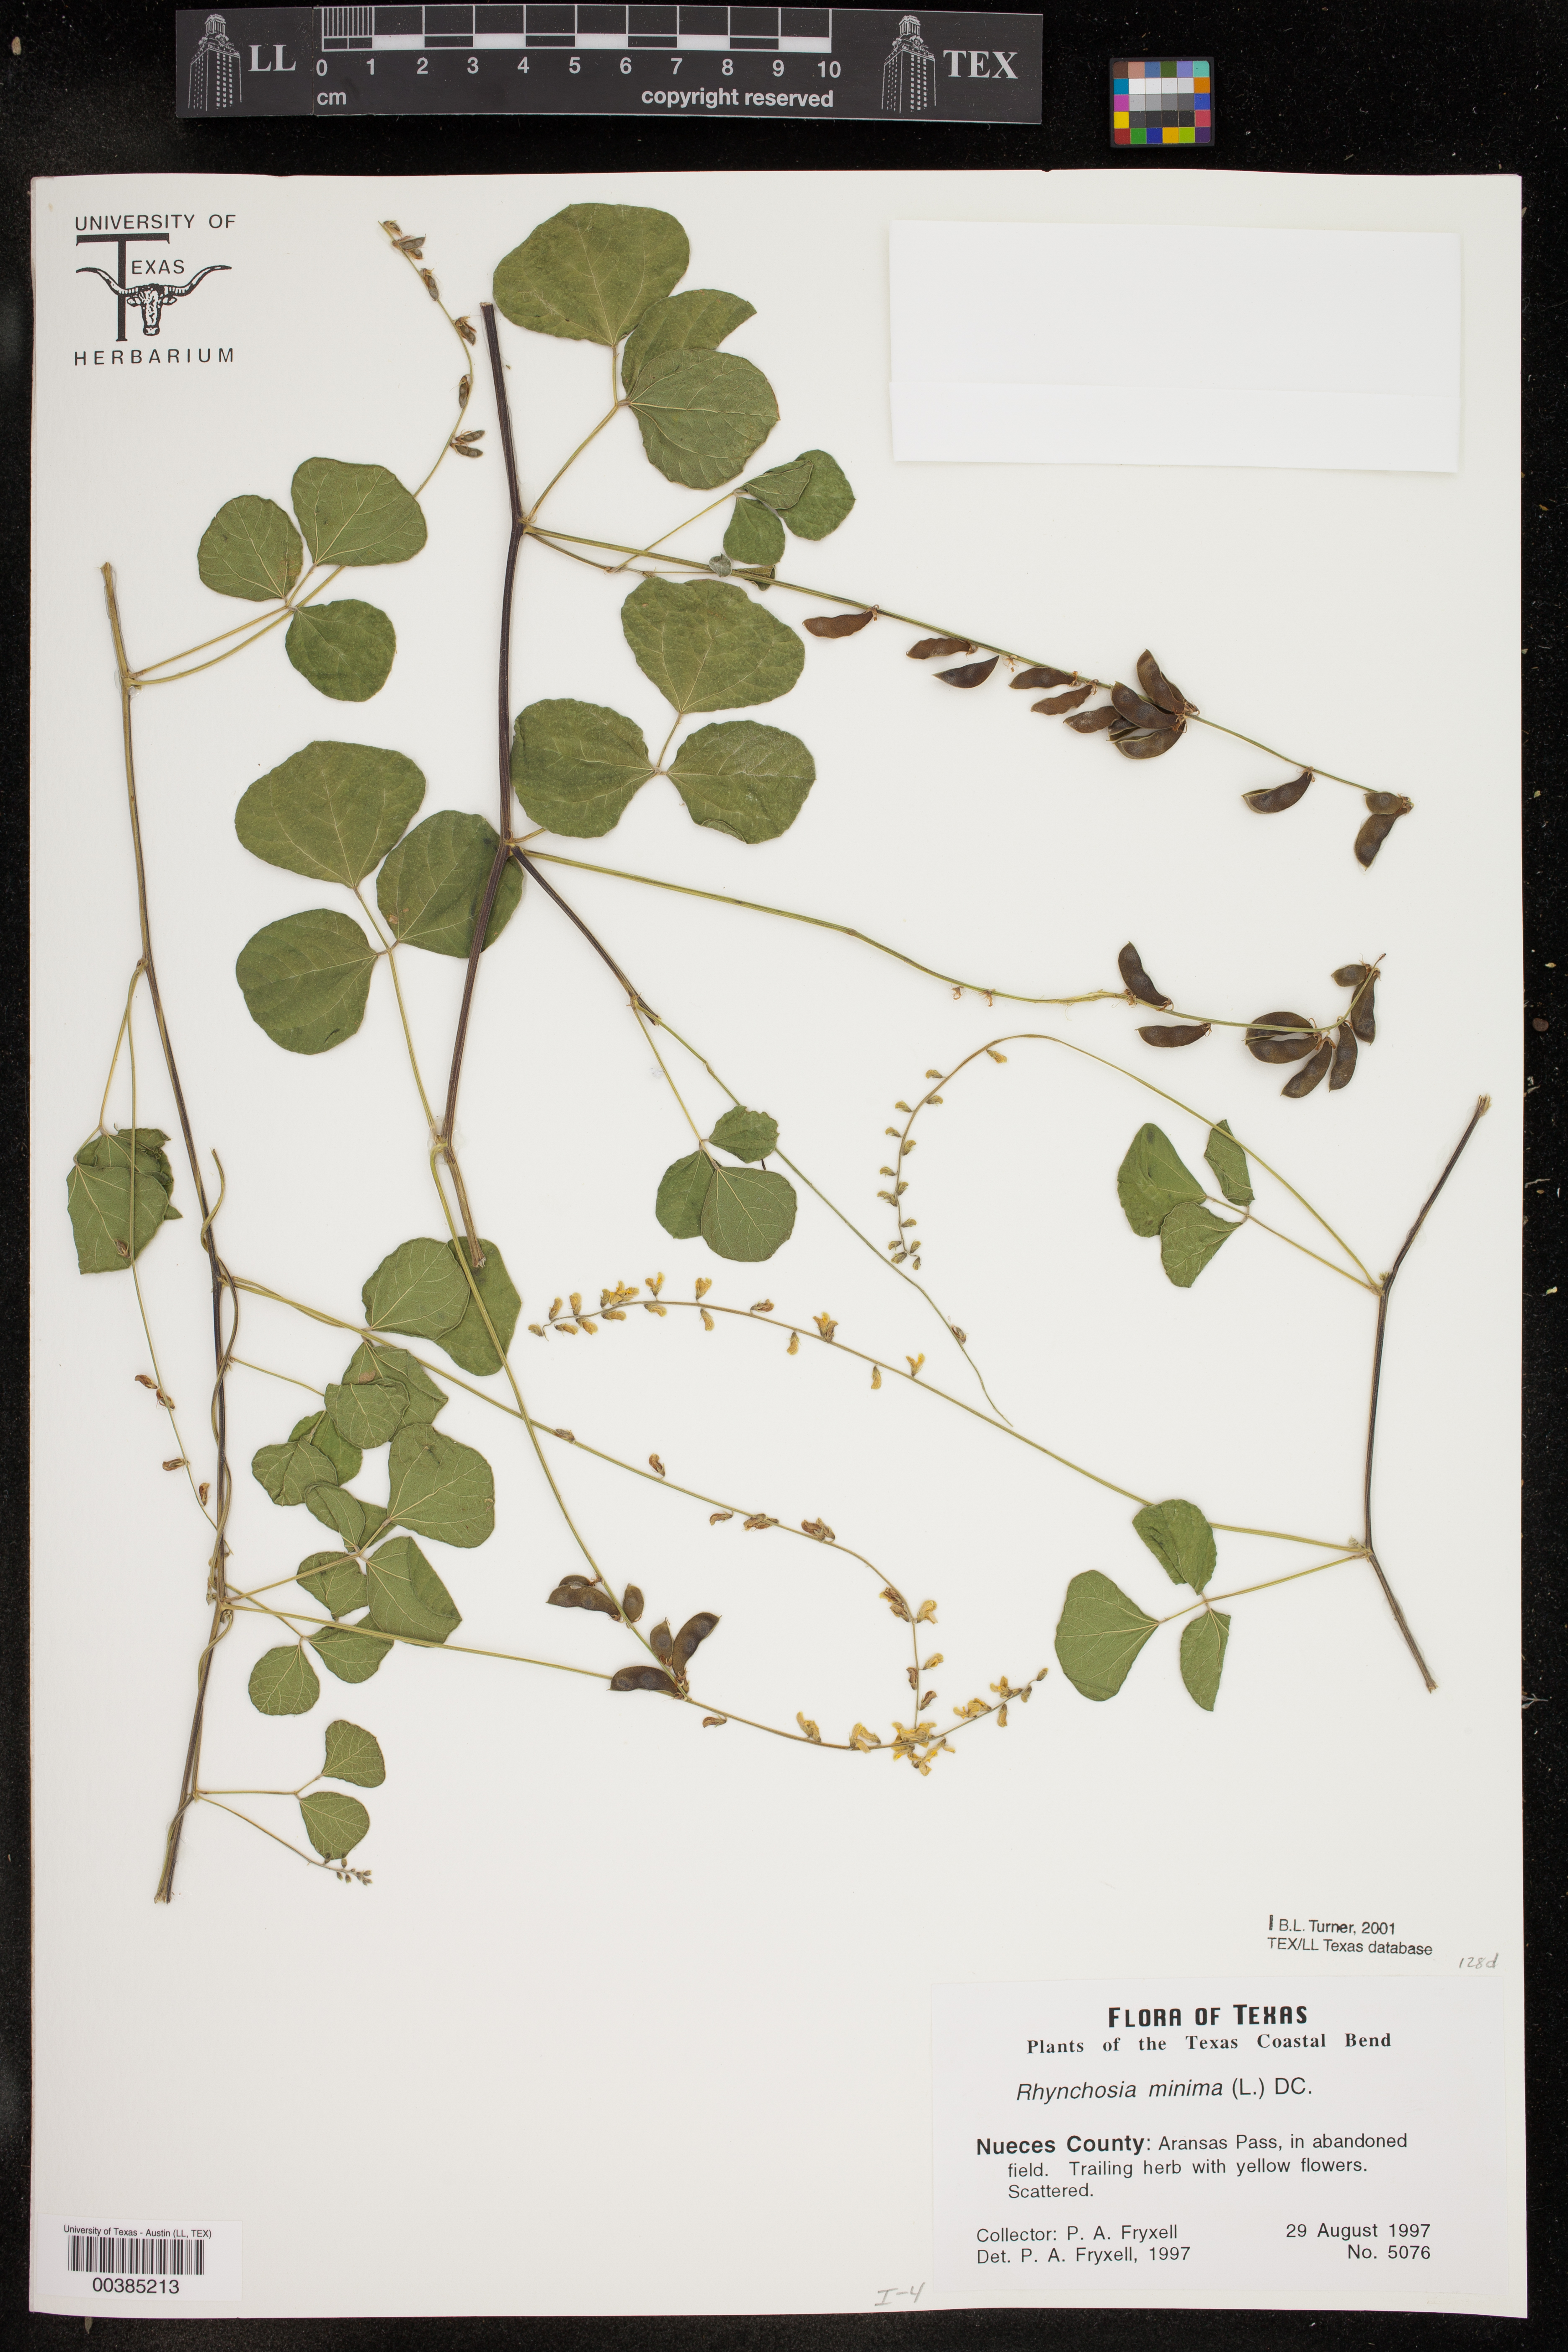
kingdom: Plantae
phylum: Tracheophyta
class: Magnoliopsida
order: Fabales
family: Fabaceae
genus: Rhynchosia
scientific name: Rhynchosia minima
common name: Least snoutbean
